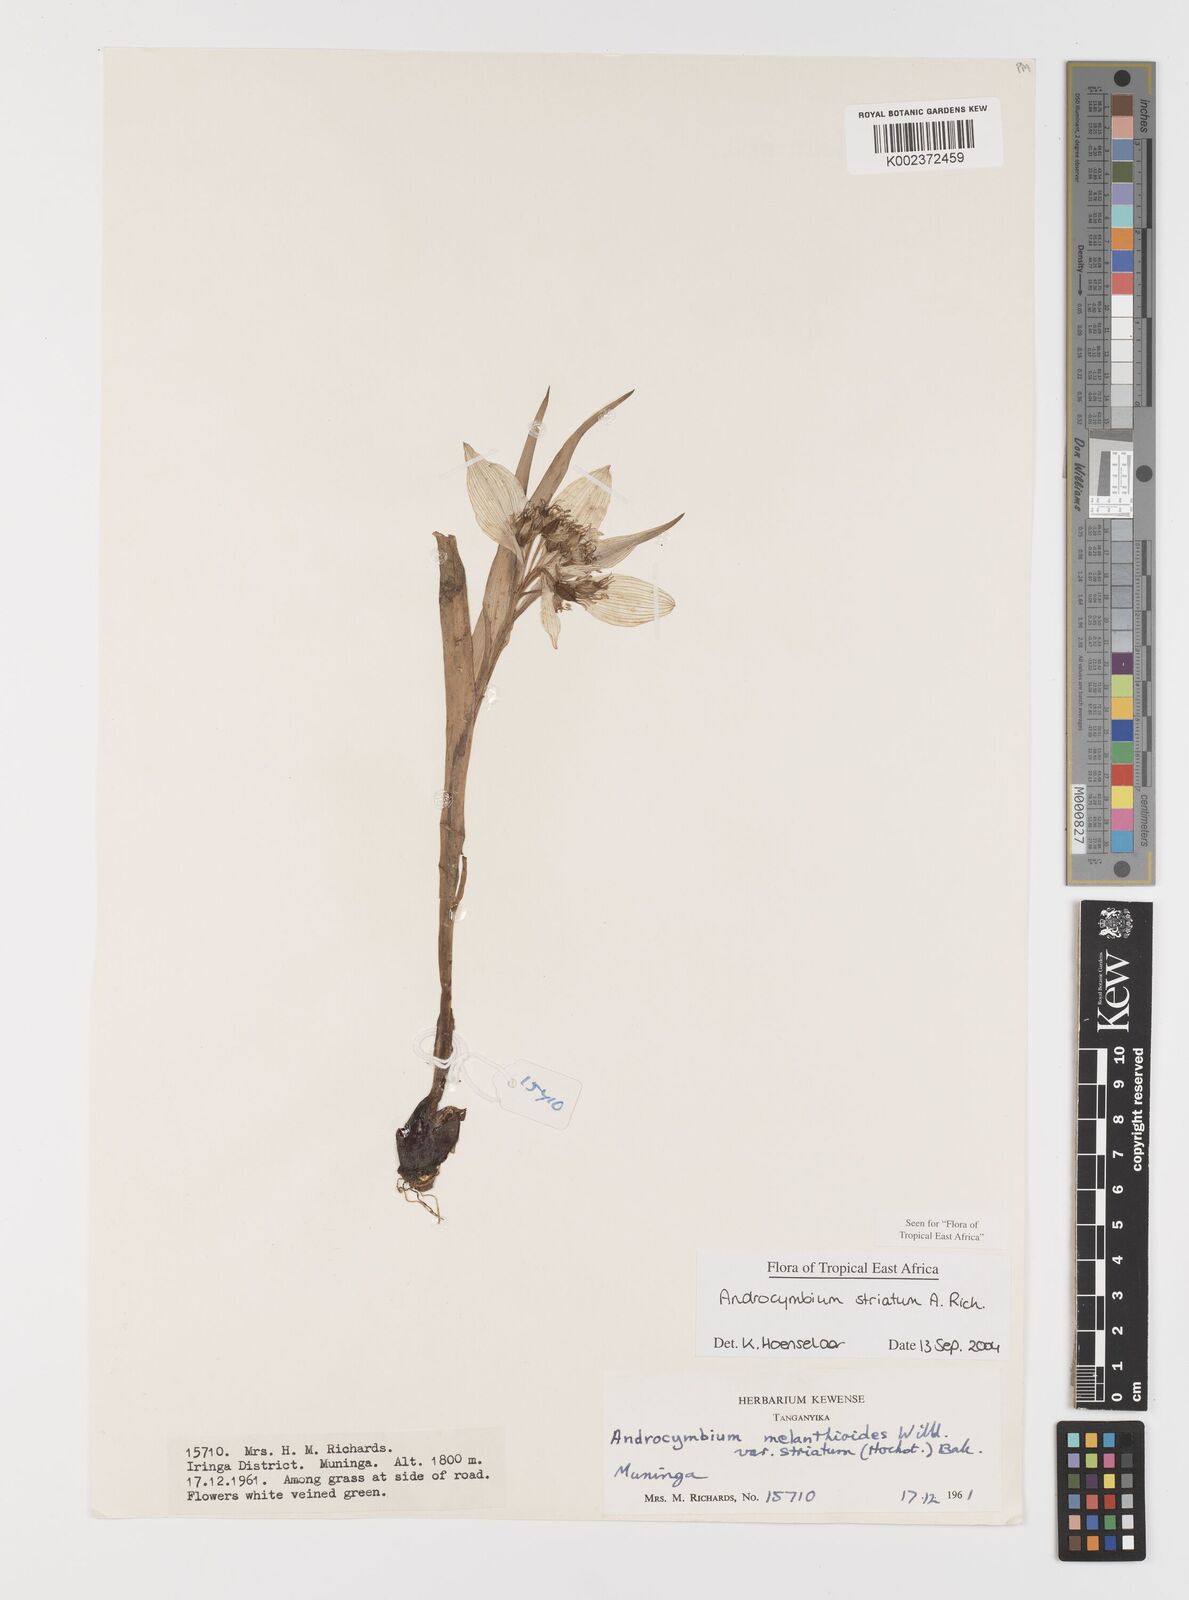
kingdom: Plantae
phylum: Tracheophyta
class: Liliopsida
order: Liliales
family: Colchicaceae
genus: Colchicum
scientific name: Colchicum striatum
